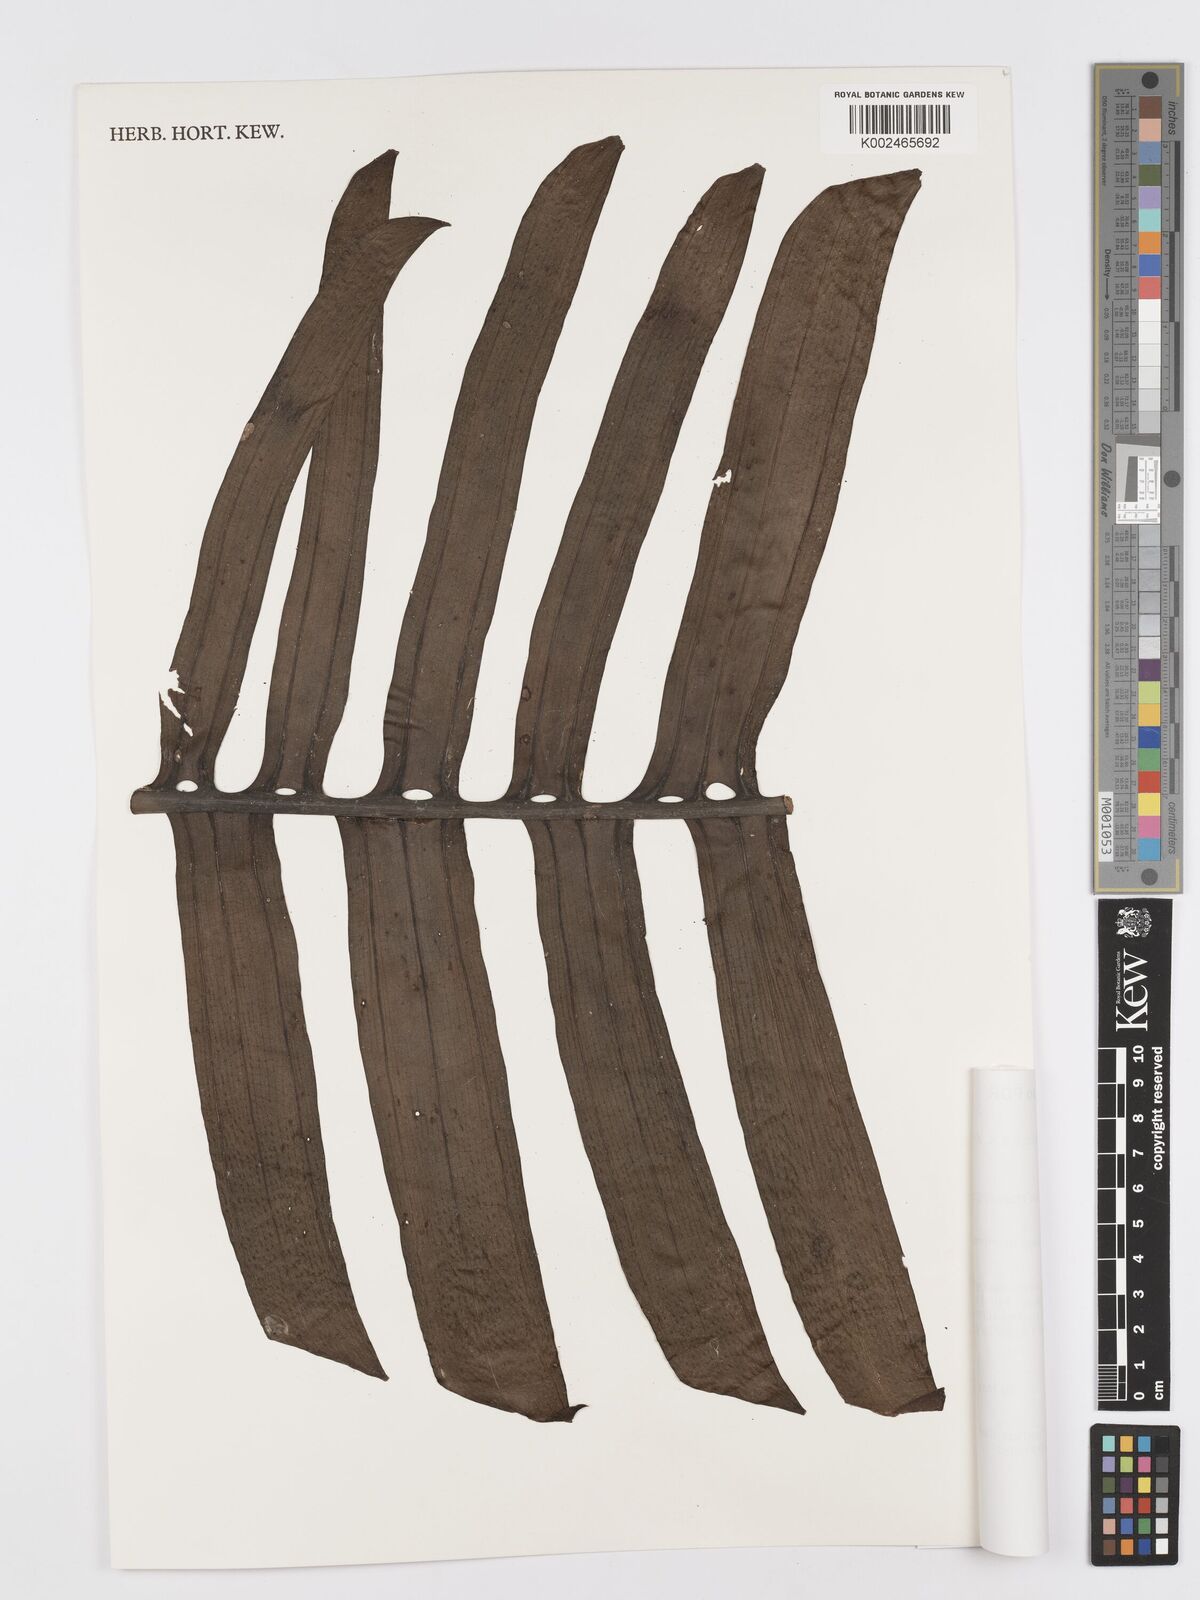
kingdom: Plantae
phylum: Tracheophyta
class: Liliopsida
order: Alismatales
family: Araceae
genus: Rhaphidophora
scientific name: Rhaphidophora crassicaulis
